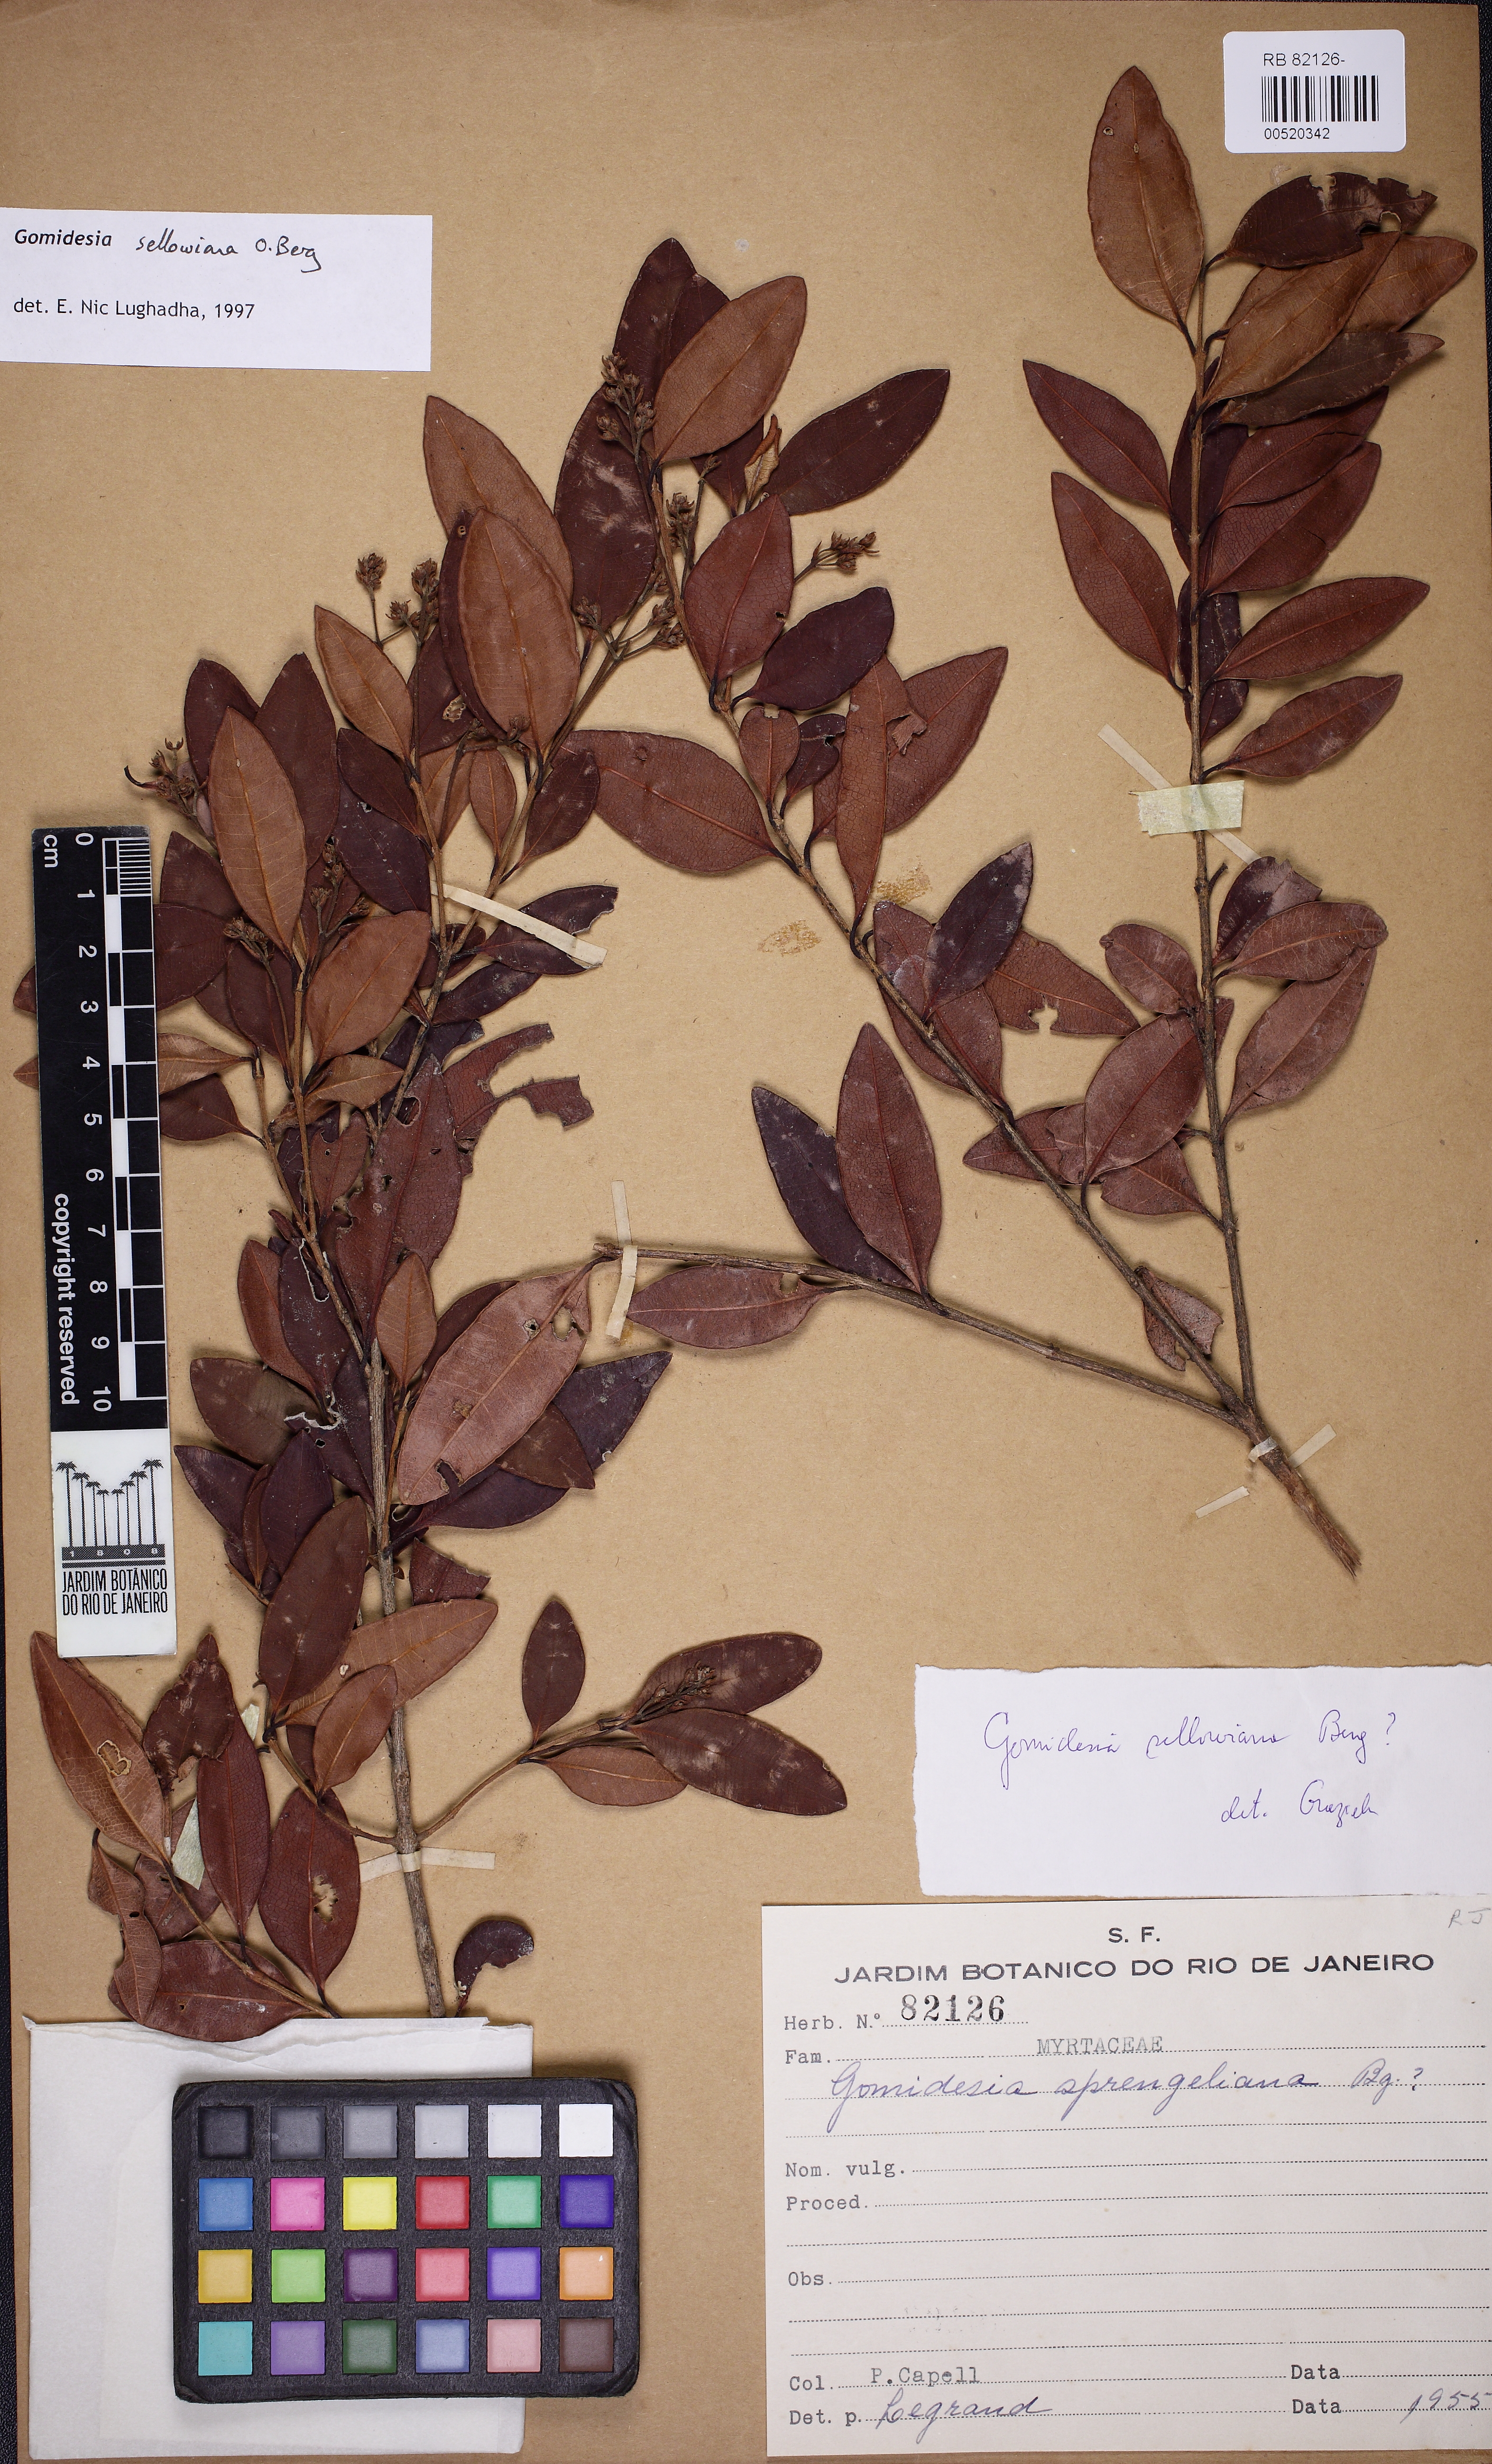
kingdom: Plantae
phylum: Tracheophyta
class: Magnoliopsida
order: Myrtales
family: Myrtaceae
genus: Myrcia
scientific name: Myrcia hartwegiana
